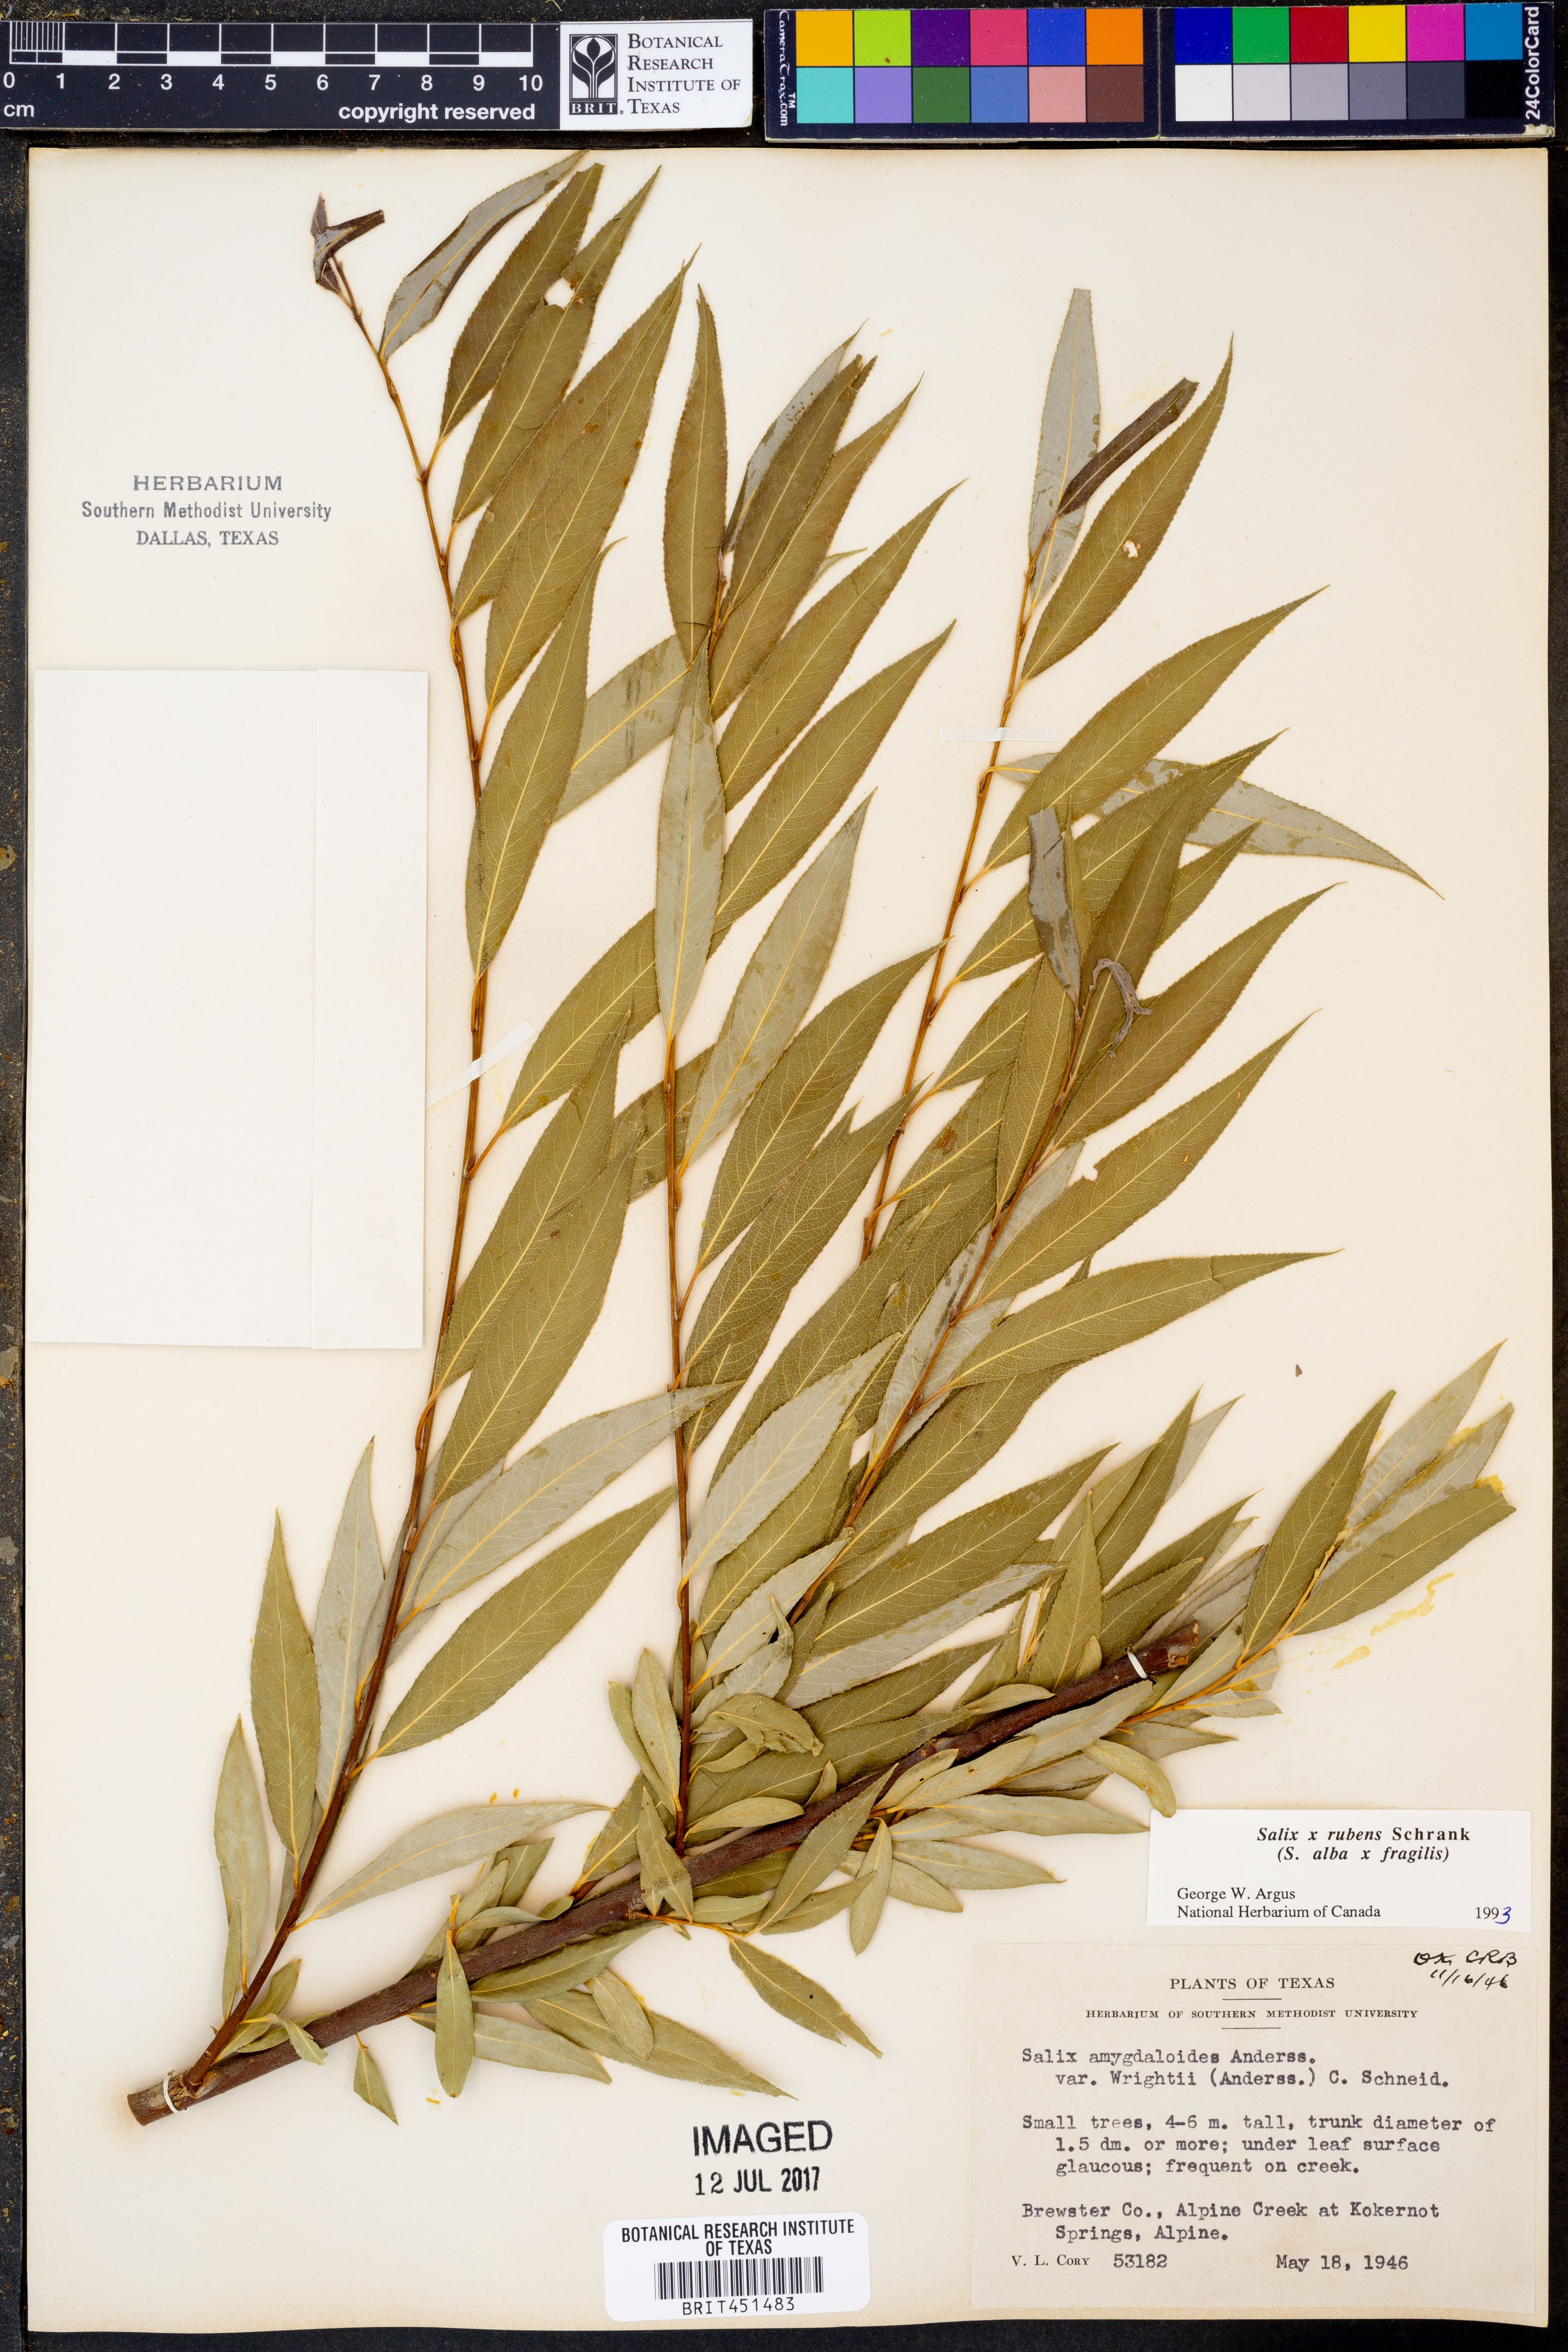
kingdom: Plantae
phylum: Tracheophyta
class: Magnoliopsida
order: Malpighiales
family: Salicaceae
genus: Salix
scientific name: Salix rubens
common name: Hybrid crack willow
